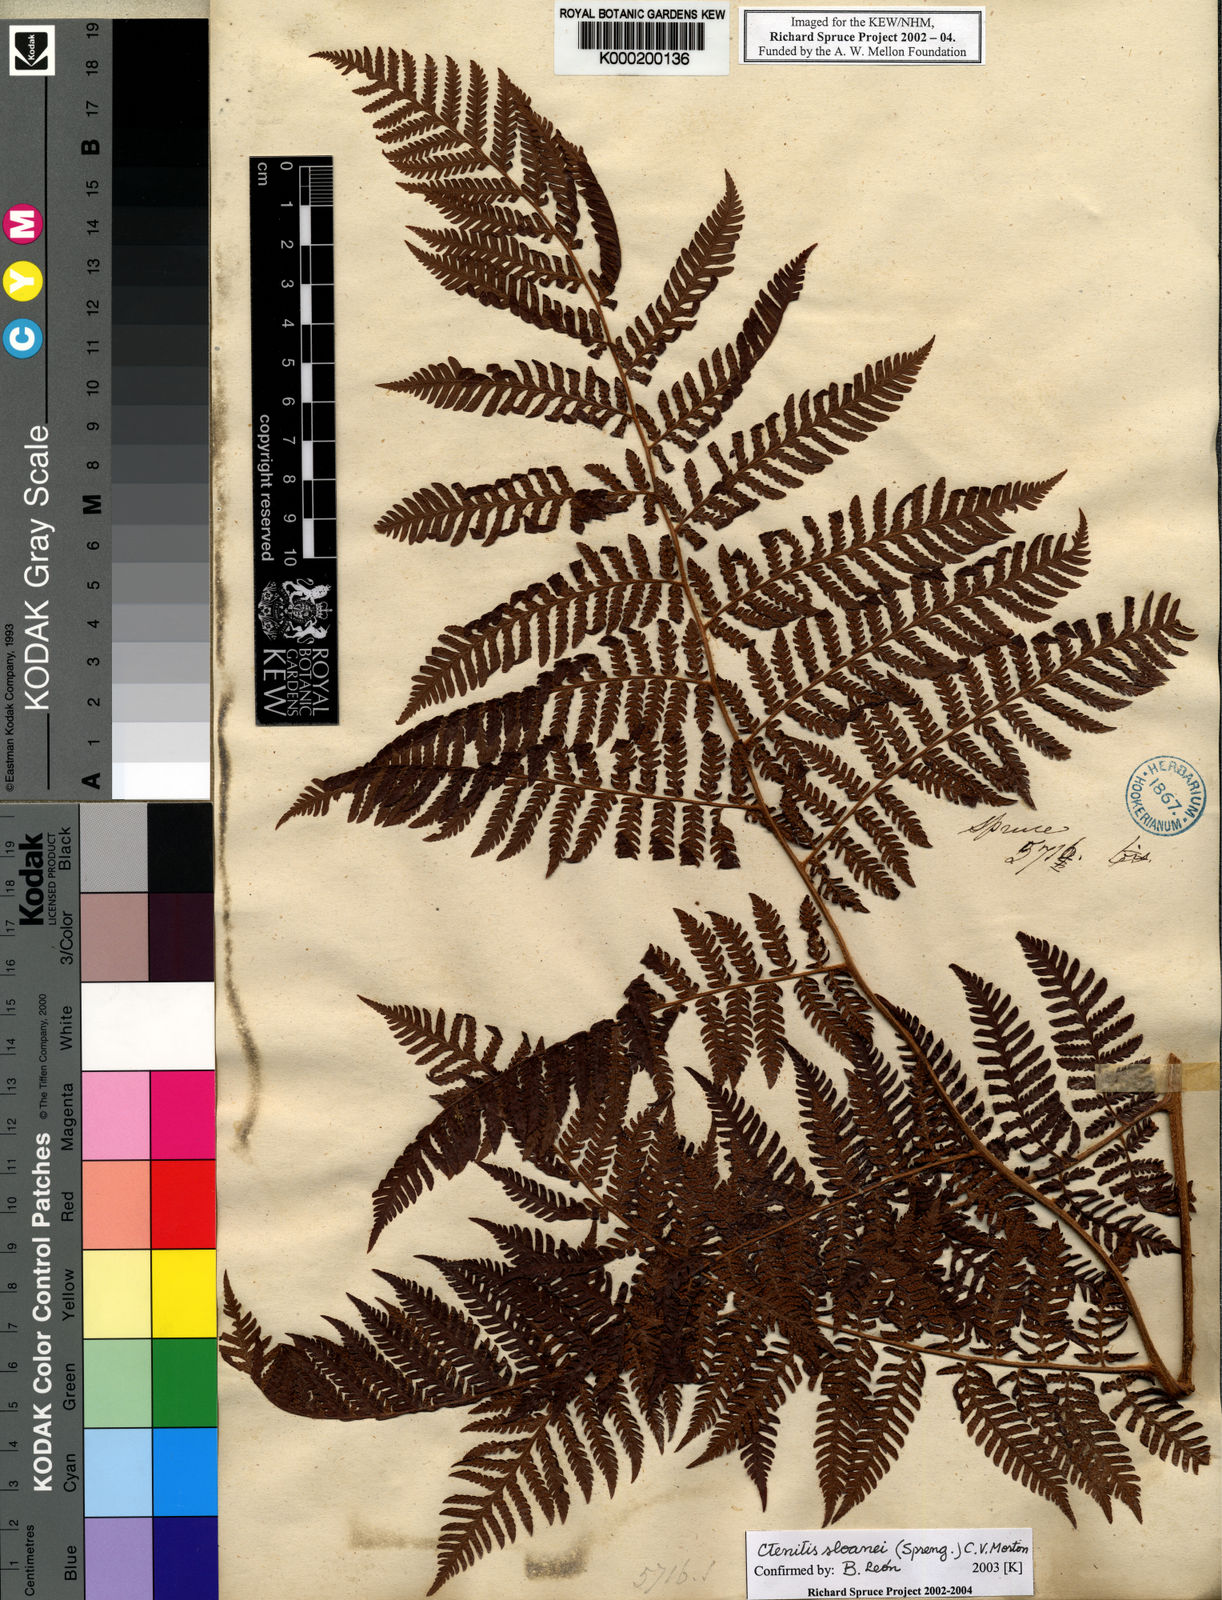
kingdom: Plantae
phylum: Tracheophyta
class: Polypodiopsida
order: Polypodiales
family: Dryopteridaceae
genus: Ctenitis
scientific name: Ctenitis sloanei
